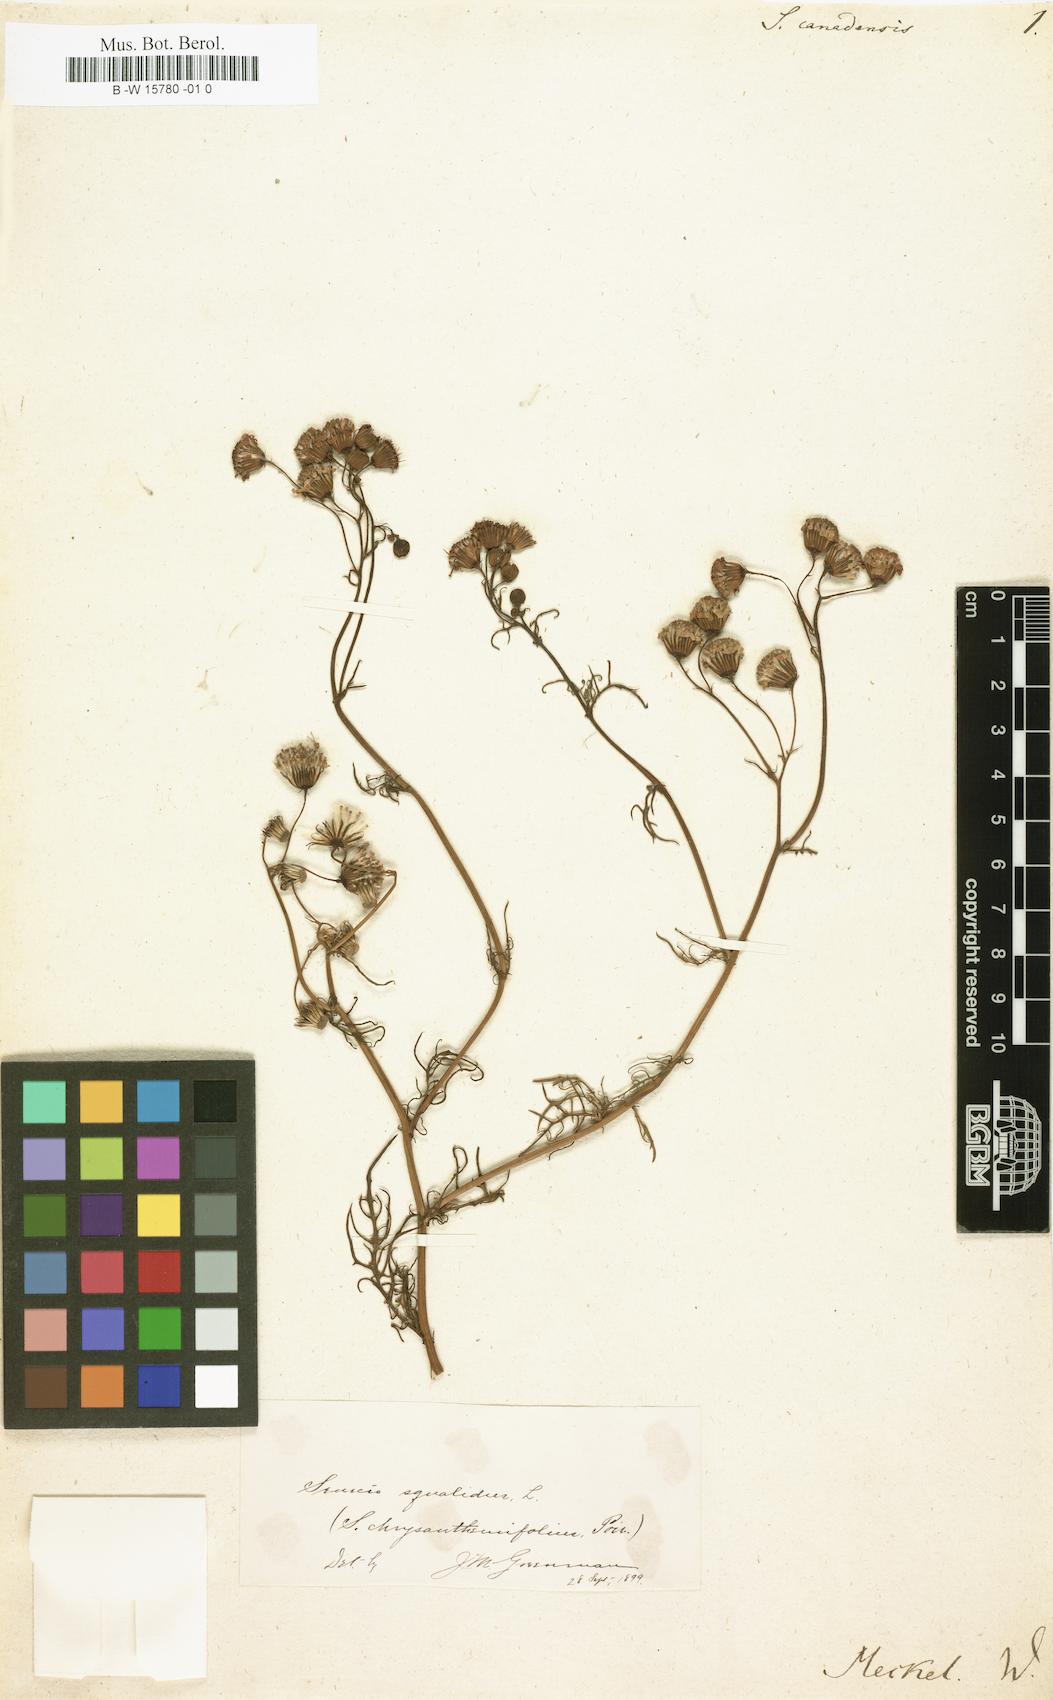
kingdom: Plantae
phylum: Tracheophyta
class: Magnoliopsida
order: Asterales
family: Asteraceae
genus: Senecio
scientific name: Senecio lugens
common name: Black-tip groundsel
